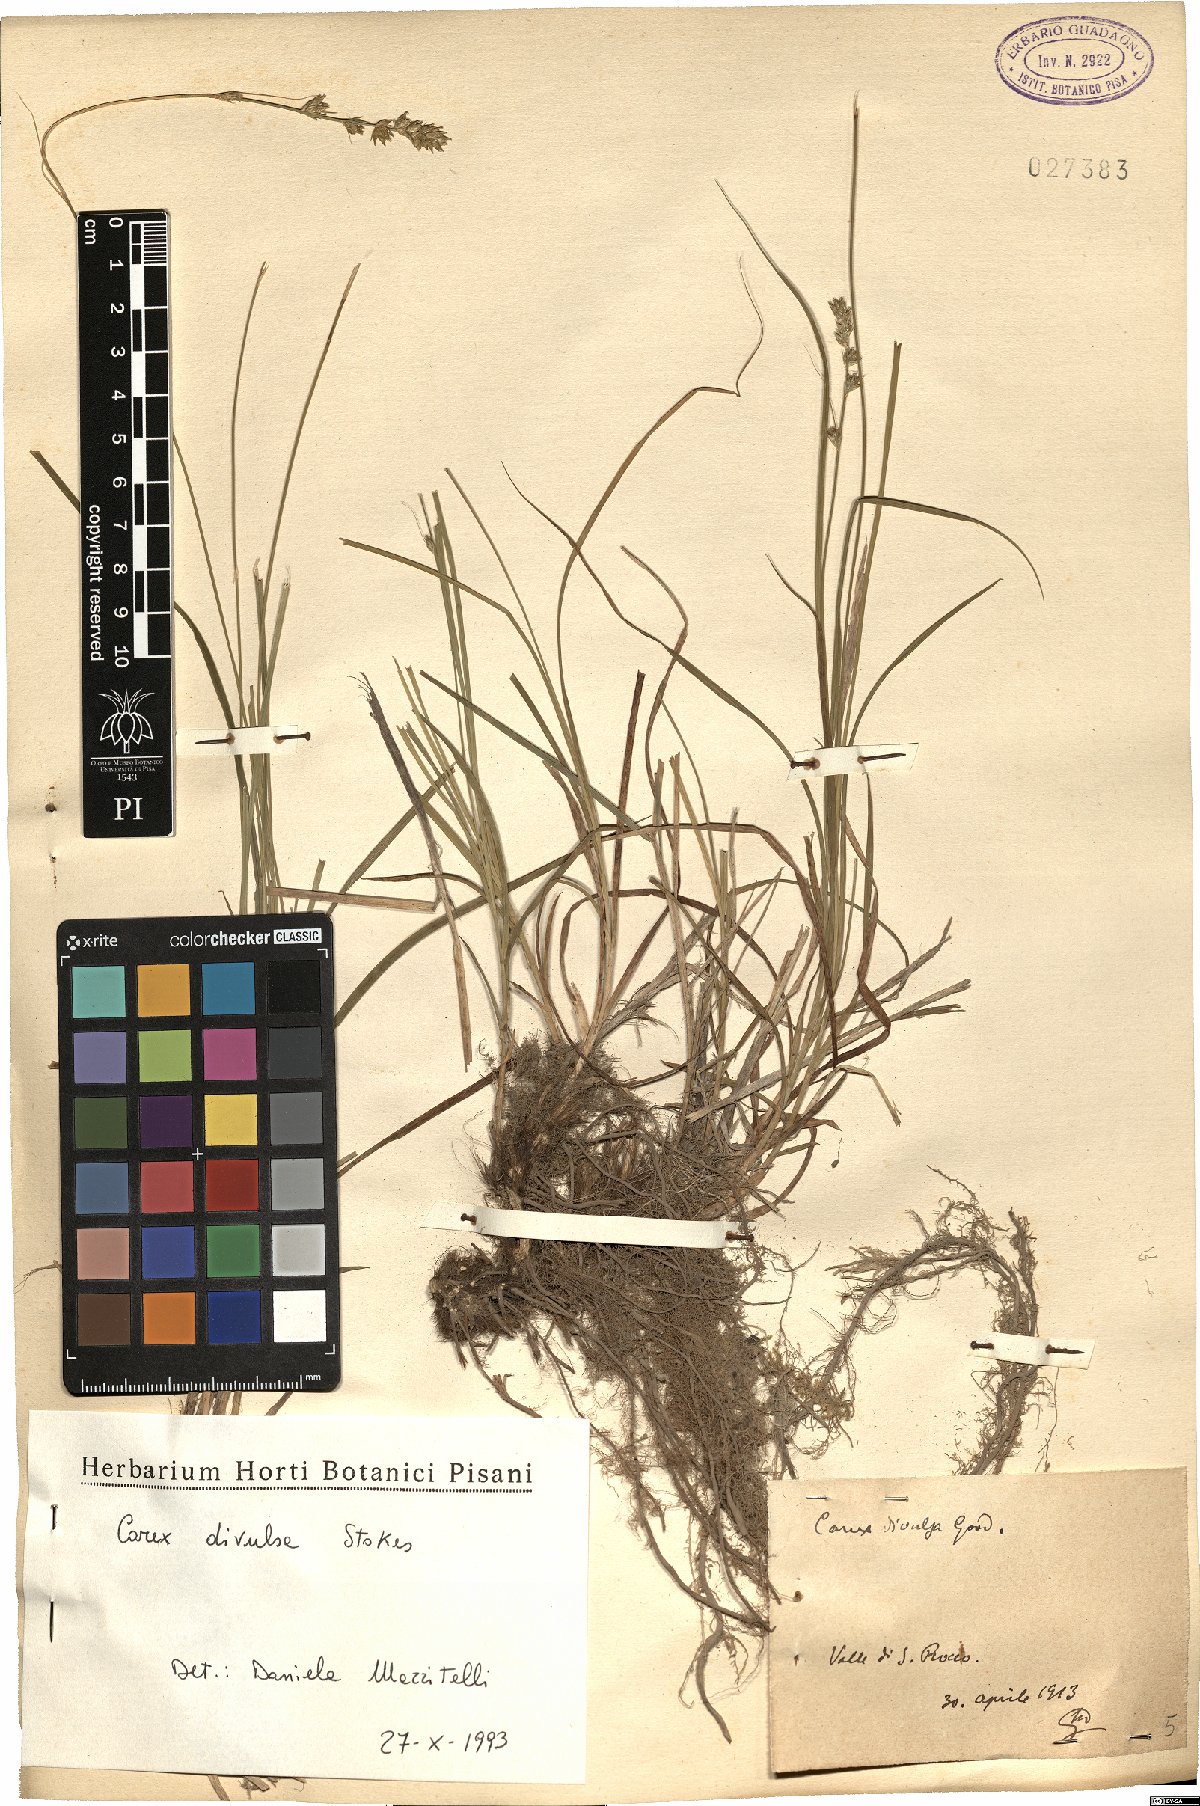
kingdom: Plantae
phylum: Tracheophyta
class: Liliopsida
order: Poales
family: Cyperaceae
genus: Carex
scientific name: Carex divulsa
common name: Grassland sedge
